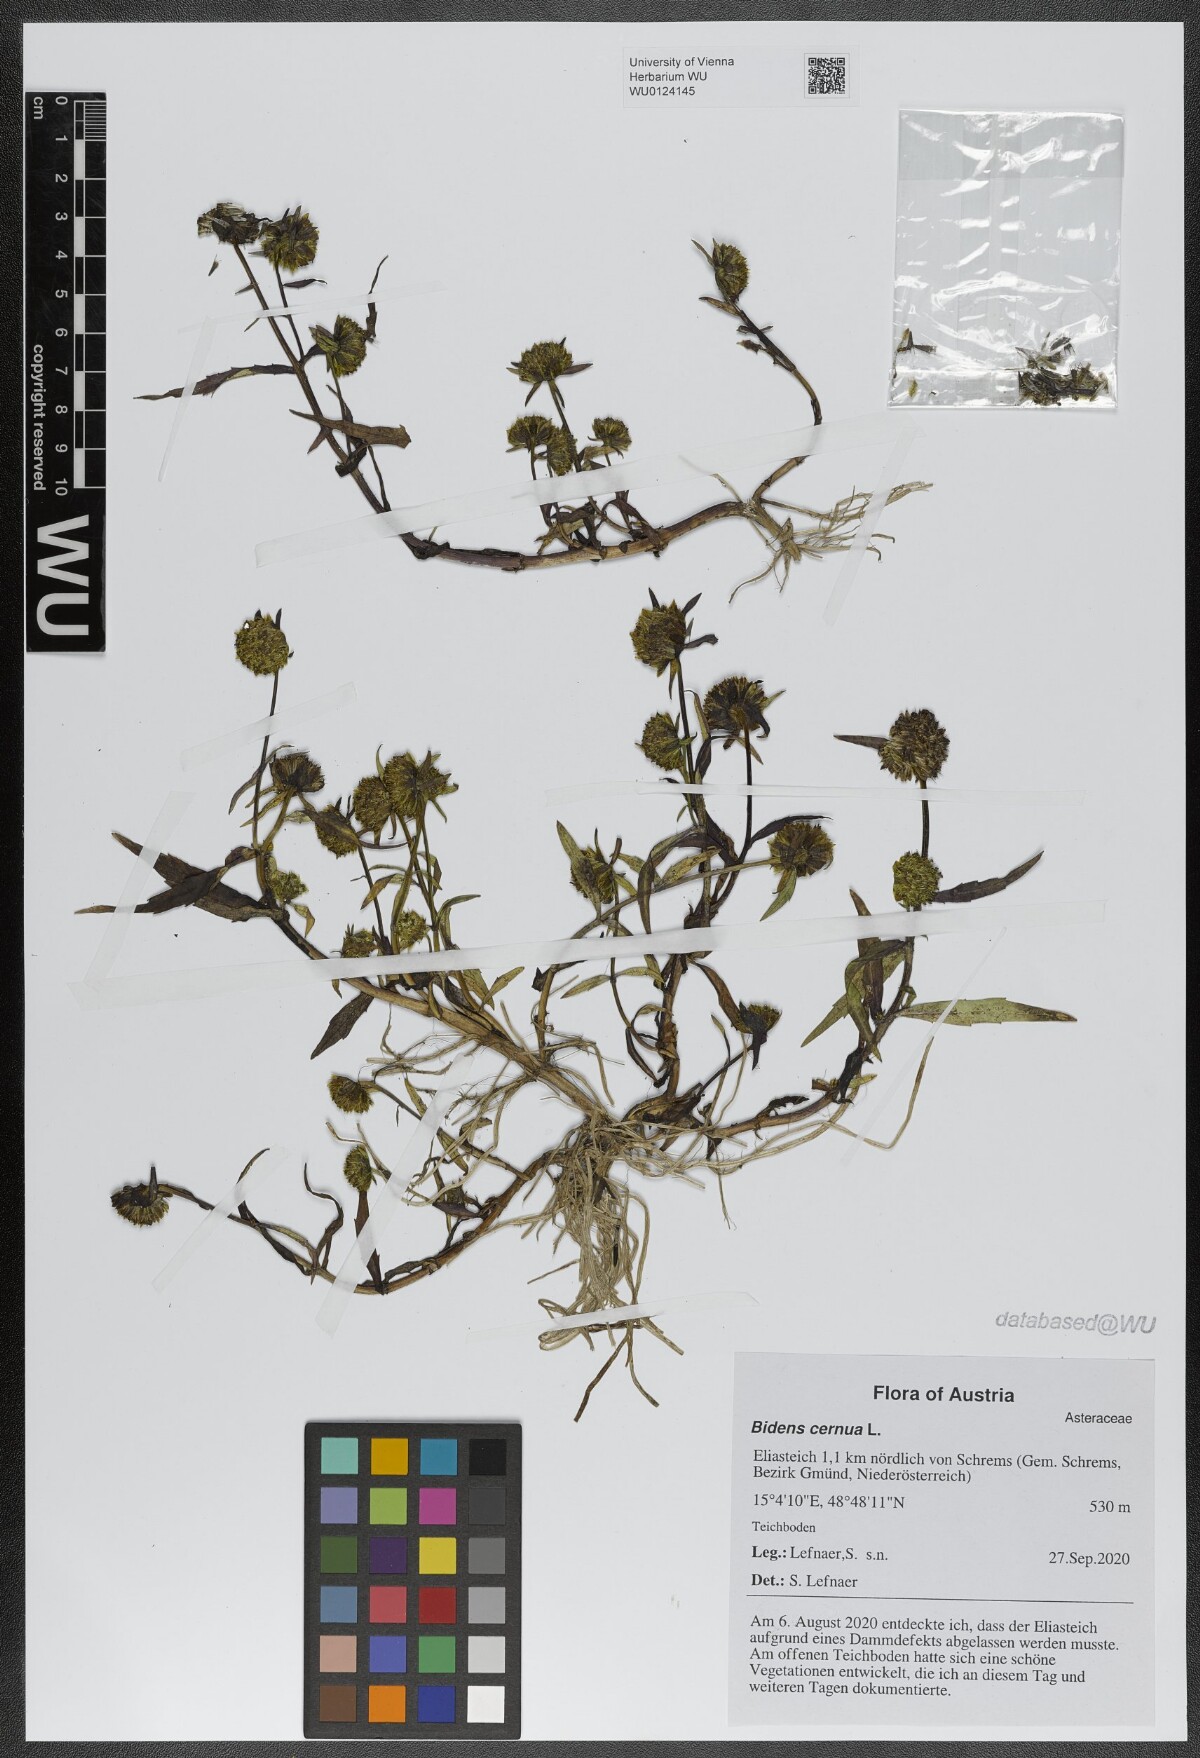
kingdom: Plantae
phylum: Tracheophyta
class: Magnoliopsida
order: Asterales
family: Asteraceae
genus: Bidens
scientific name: Bidens cernua
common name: Nodding bur-marigold
